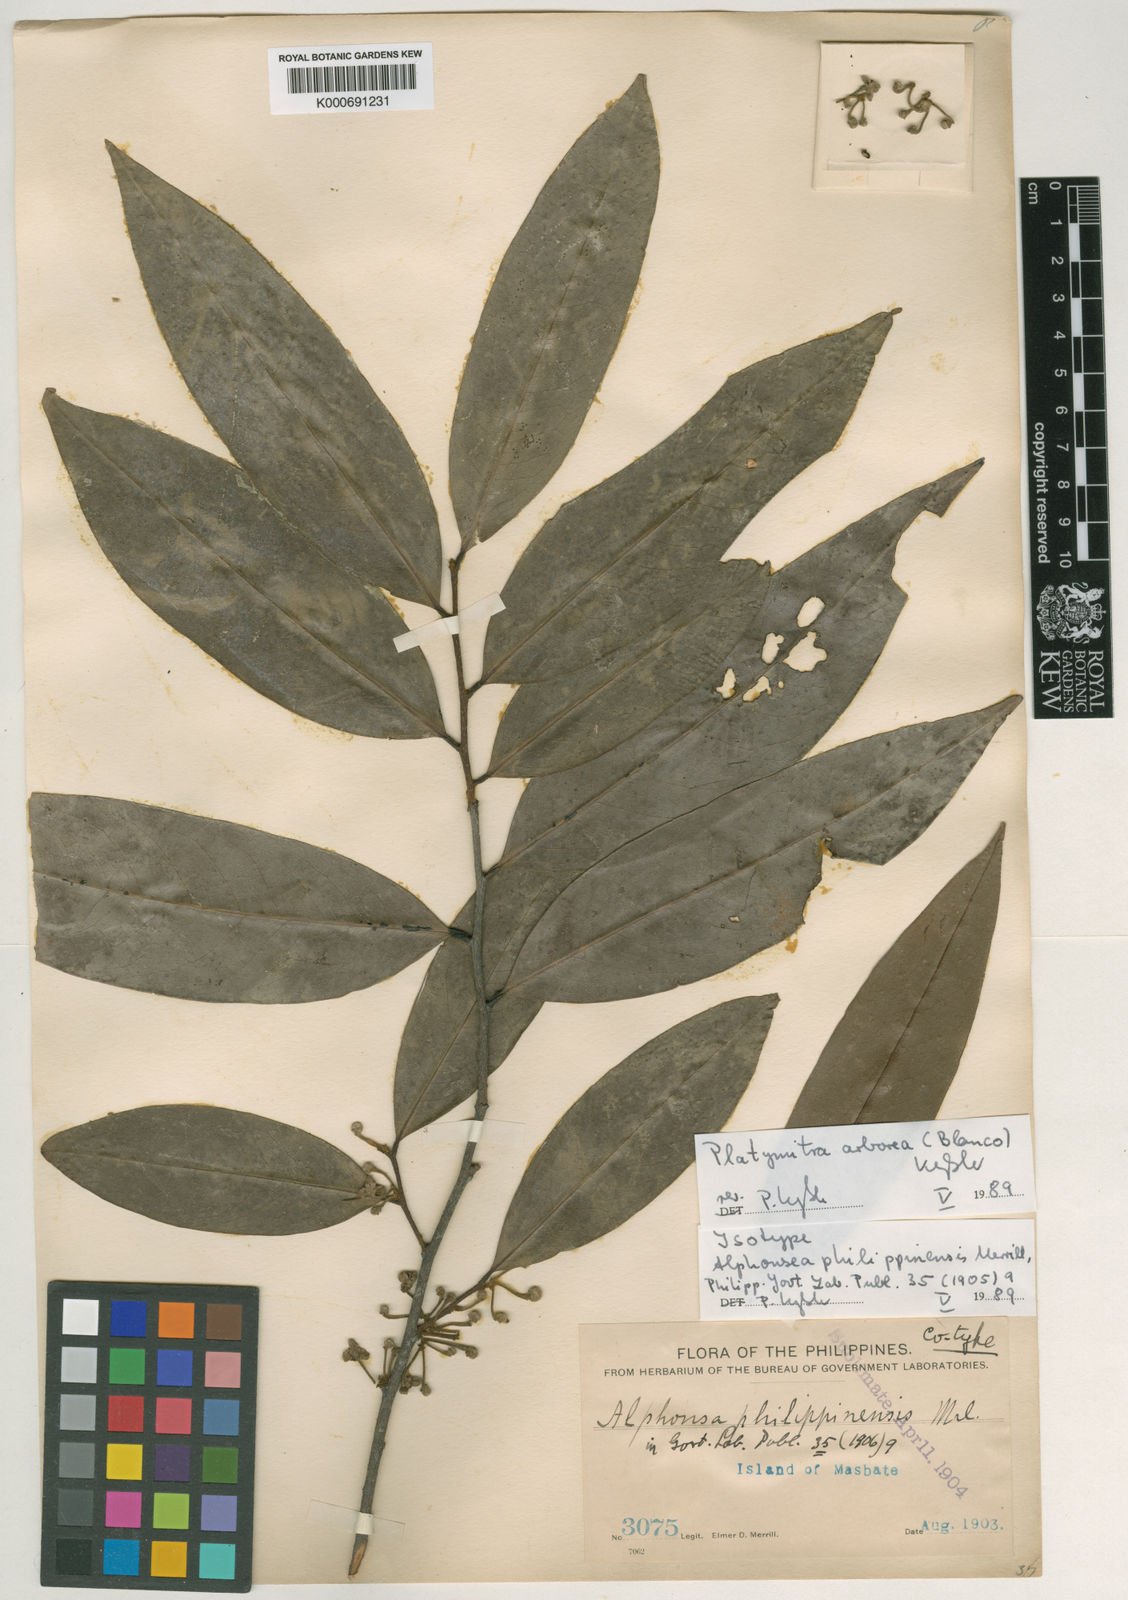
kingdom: Plantae
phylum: Tracheophyta
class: Magnoliopsida
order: Magnoliales
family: Annonaceae
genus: Platymitra
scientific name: Platymitra arborea
